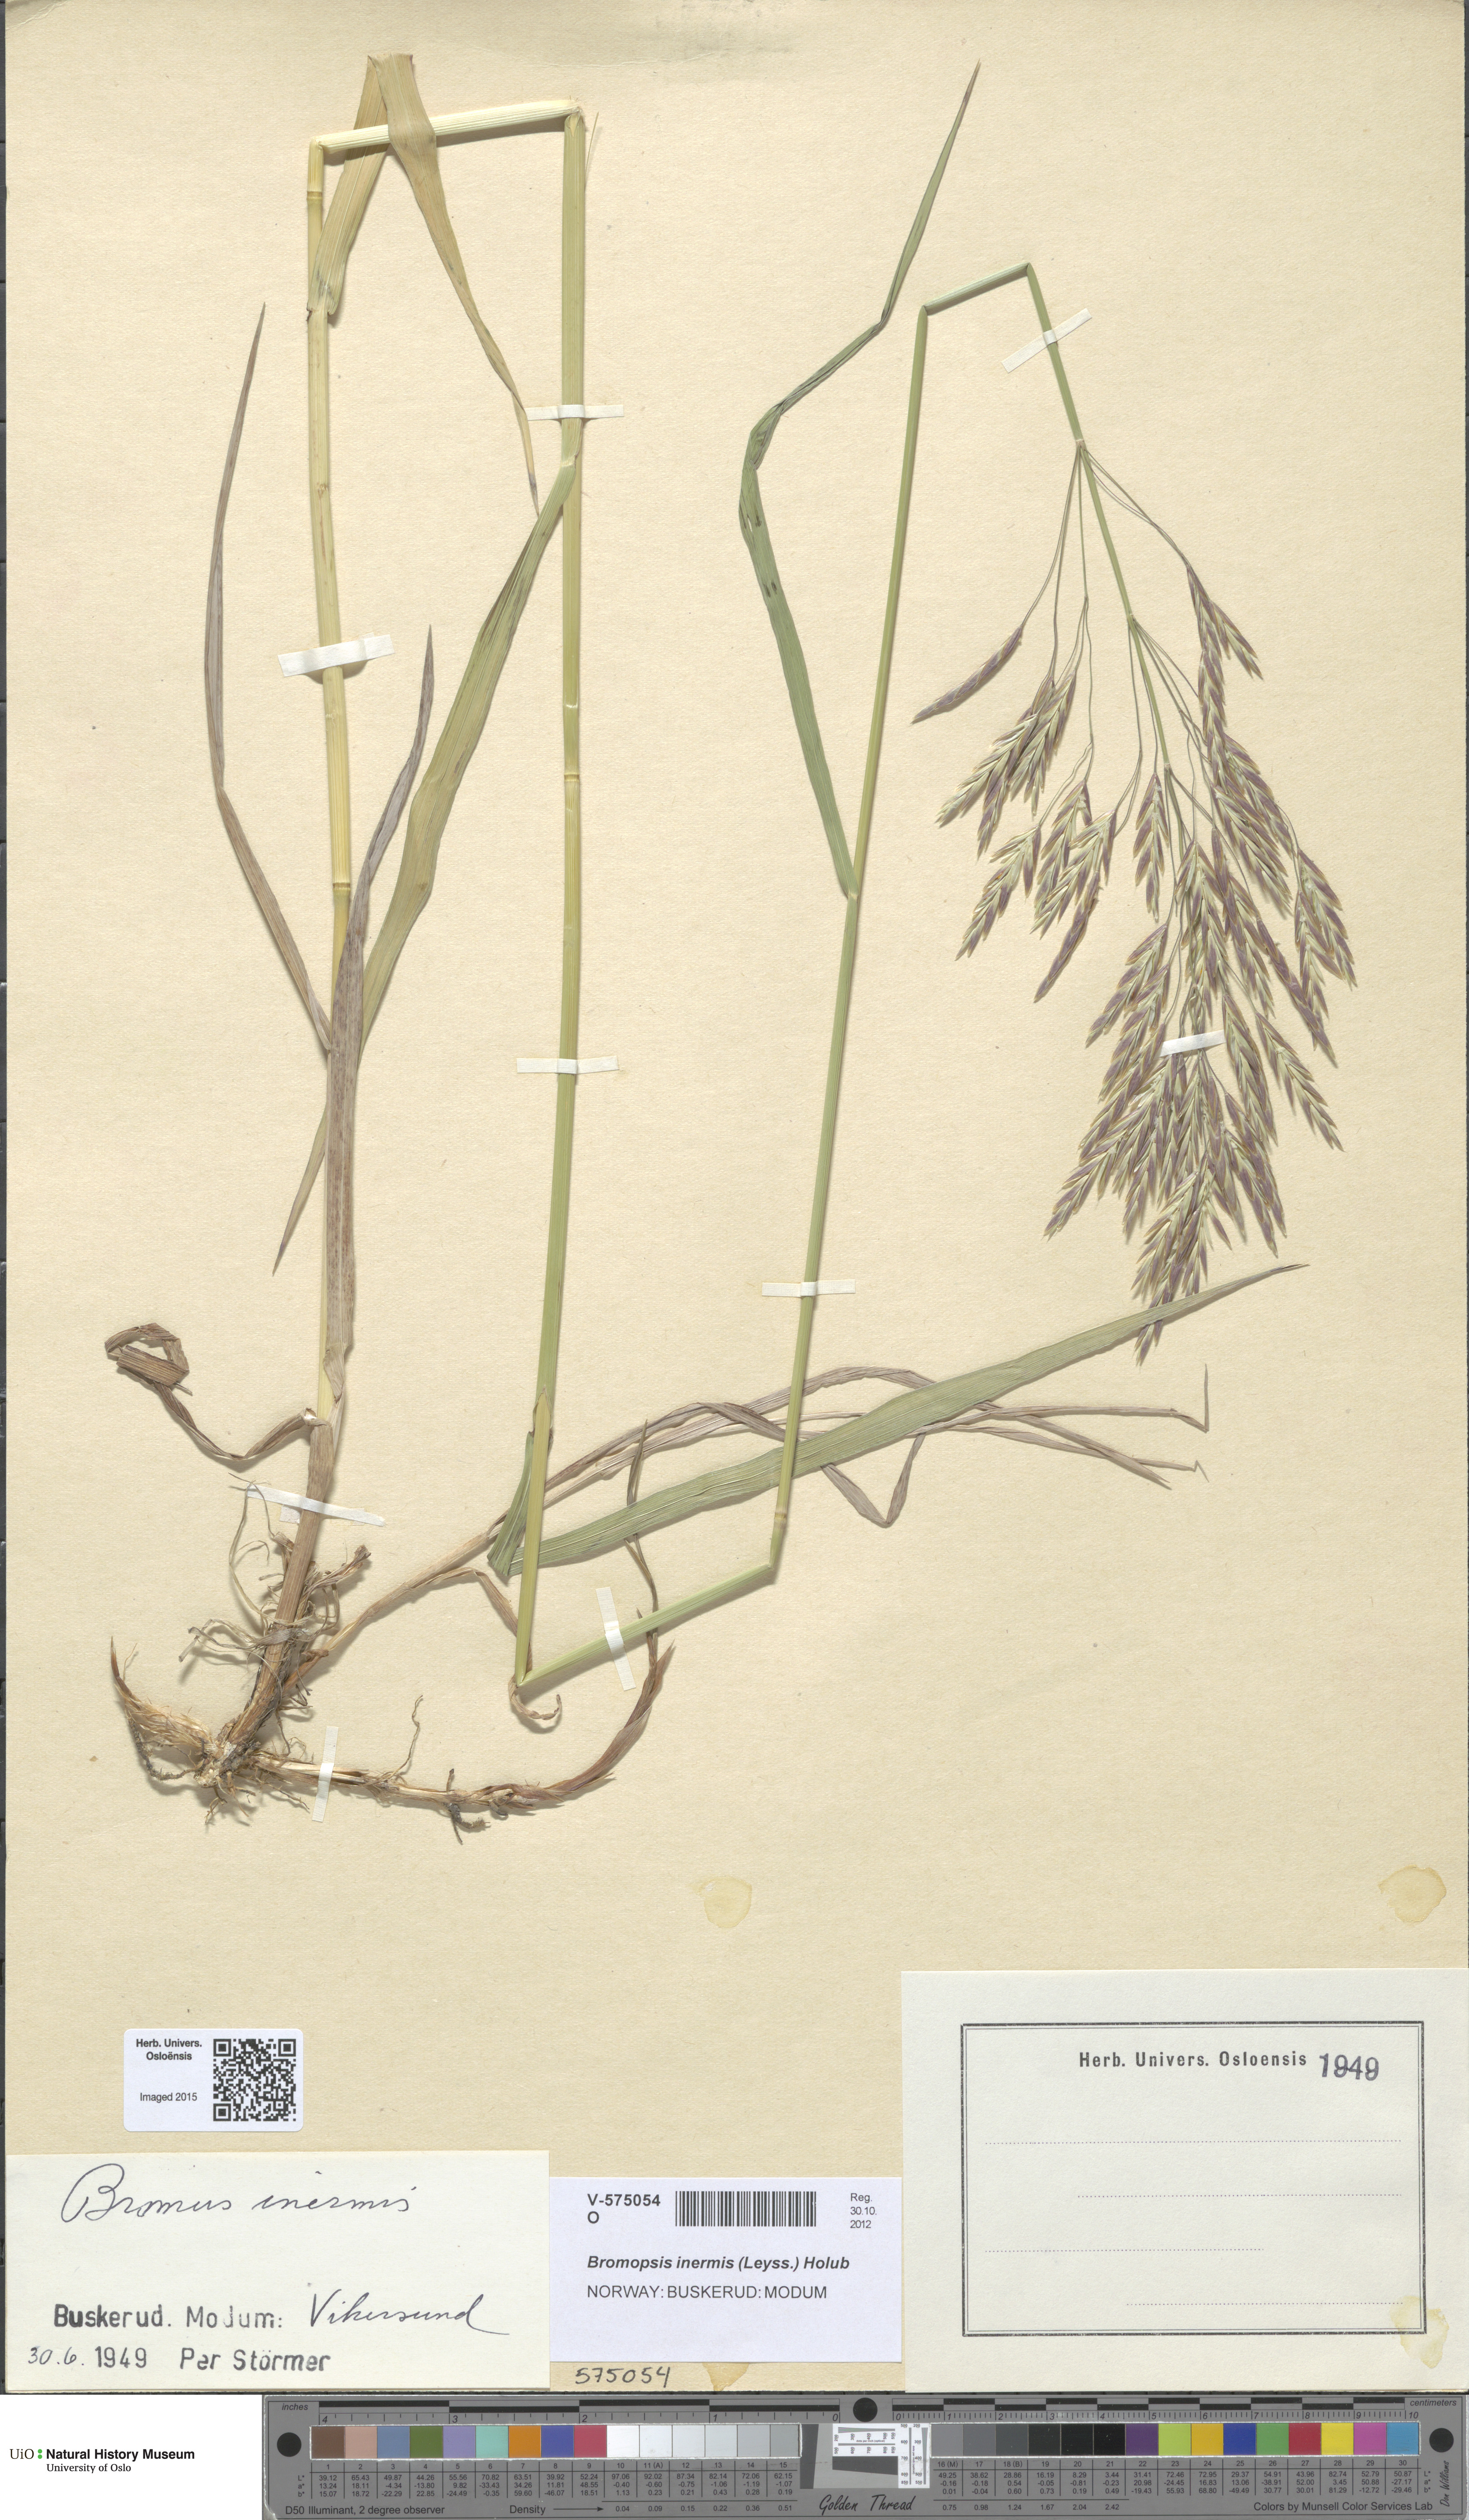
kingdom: Plantae
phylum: Tracheophyta
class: Liliopsida
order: Poales
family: Poaceae
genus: Bromus
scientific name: Bromus inermis
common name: Smooth brome
